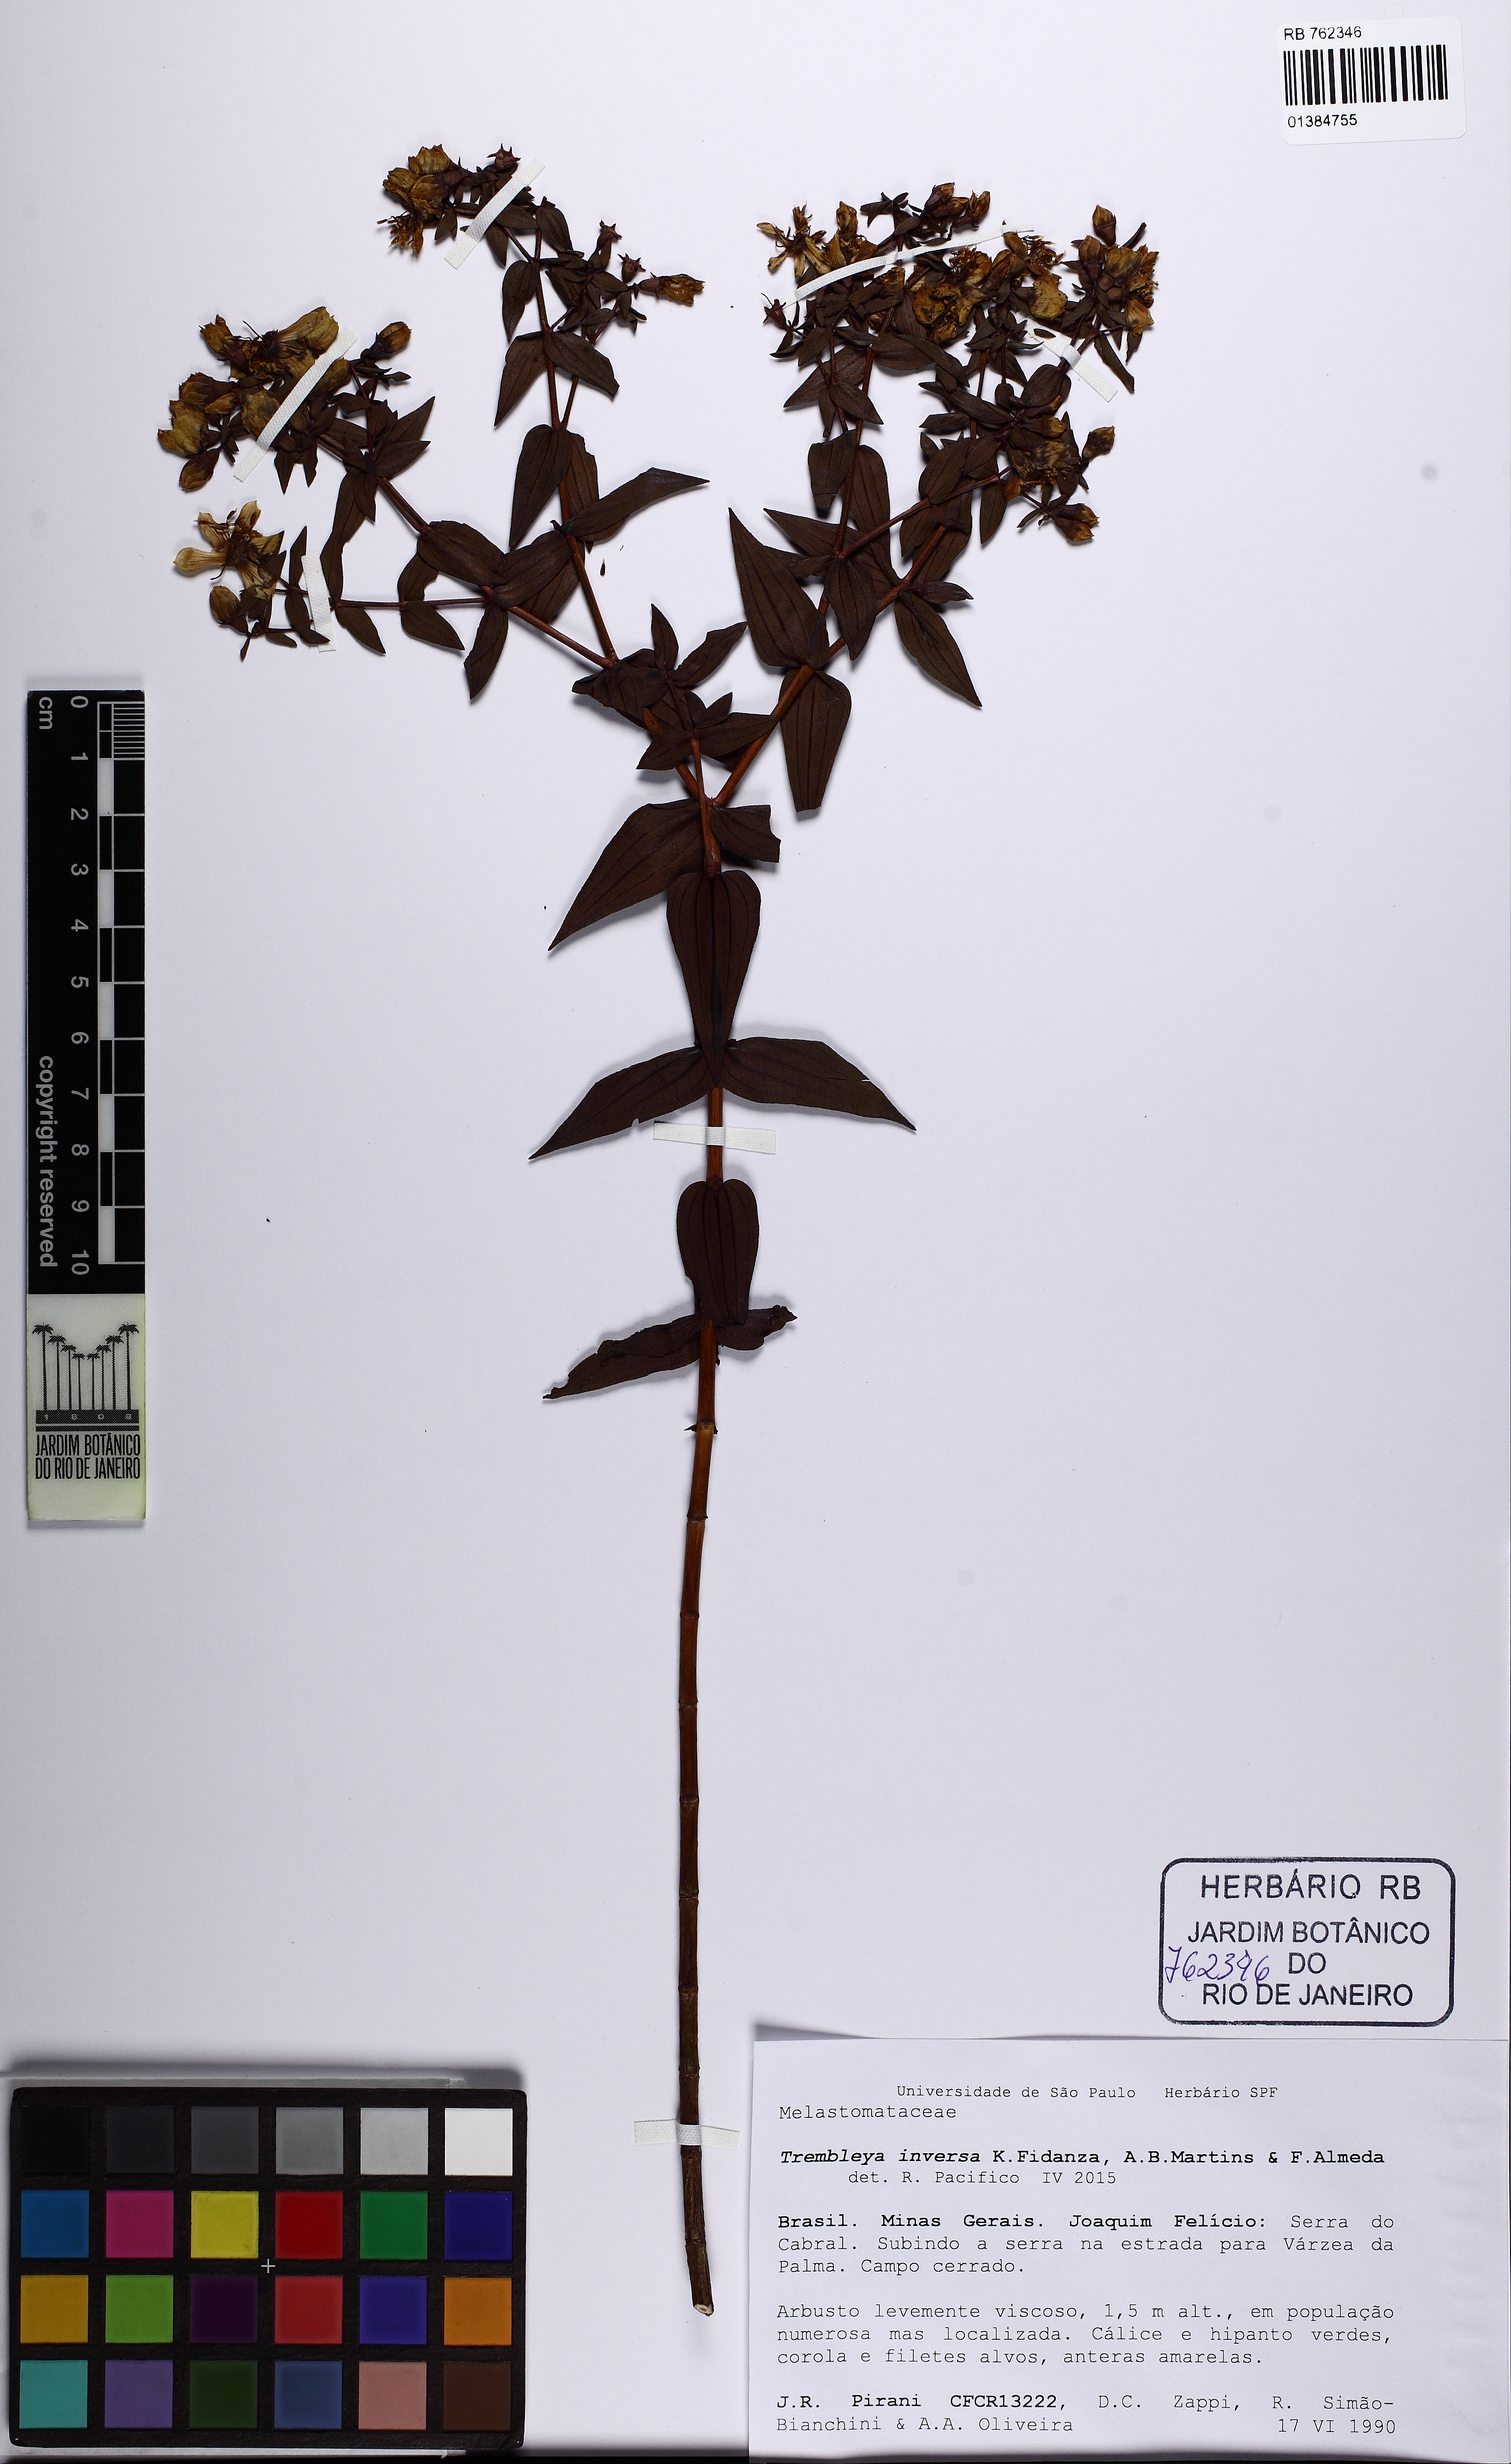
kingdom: Plantae
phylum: Tracheophyta
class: Magnoliopsida
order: Myrtales
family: Melastomataceae
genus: Microlicia
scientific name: Microlicia inversa
